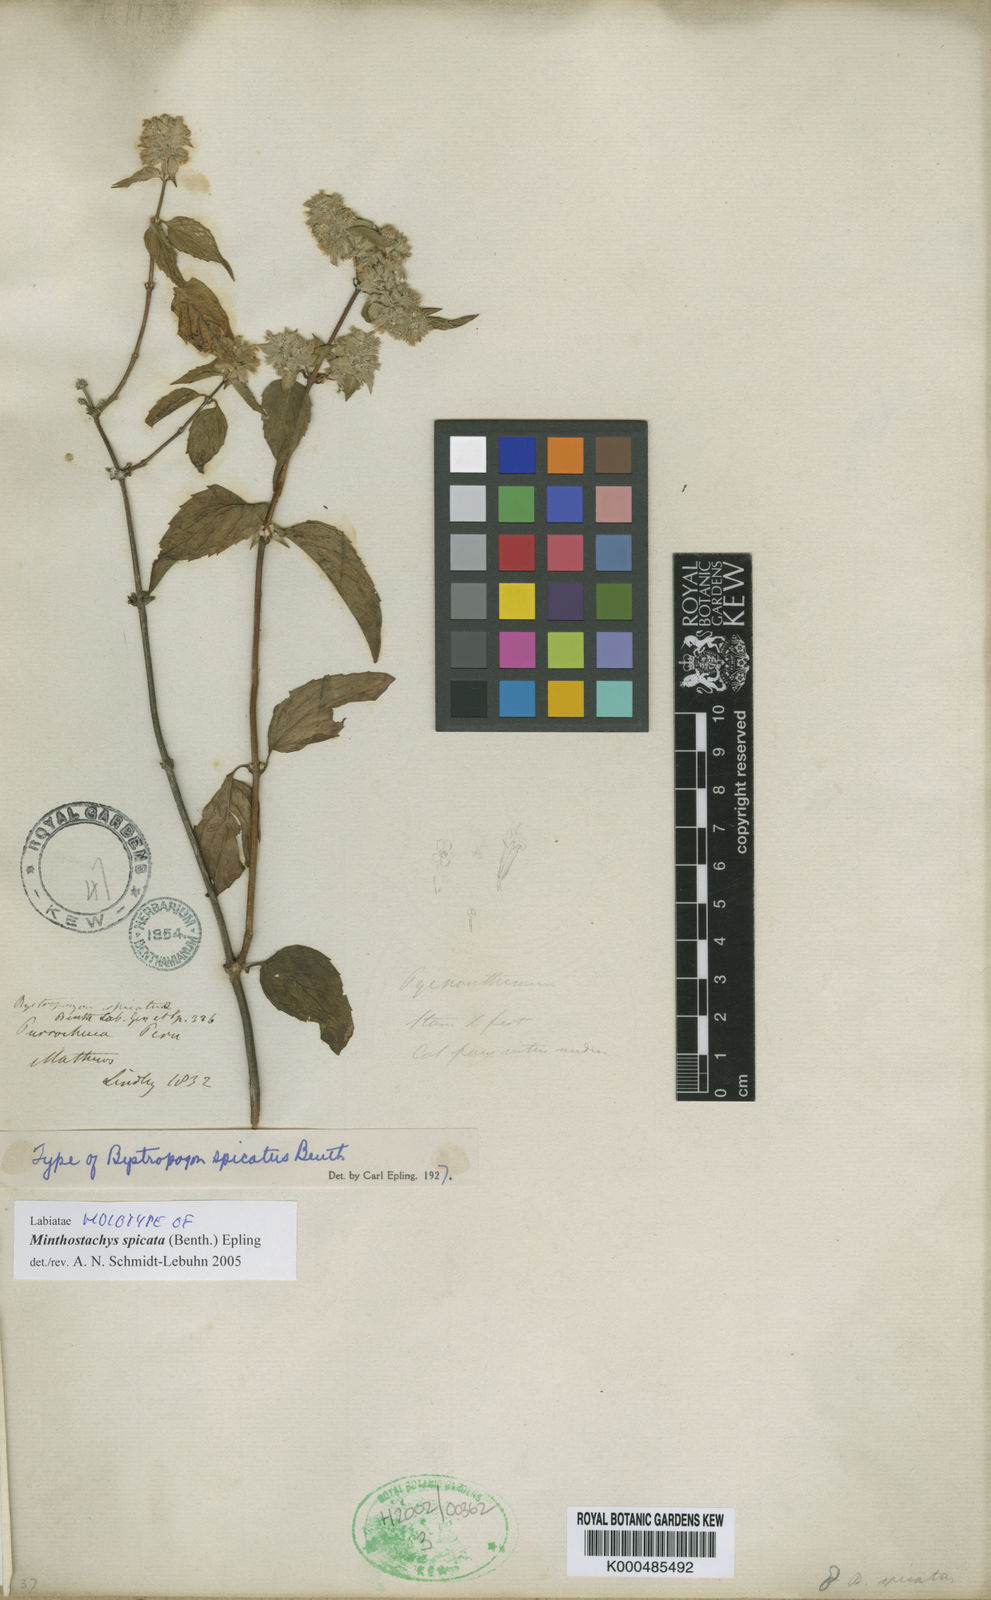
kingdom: Plantae
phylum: Tracheophyta
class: Magnoliopsida
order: Lamiales
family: Lamiaceae
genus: Minthostachys
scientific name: Minthostachys spicata
